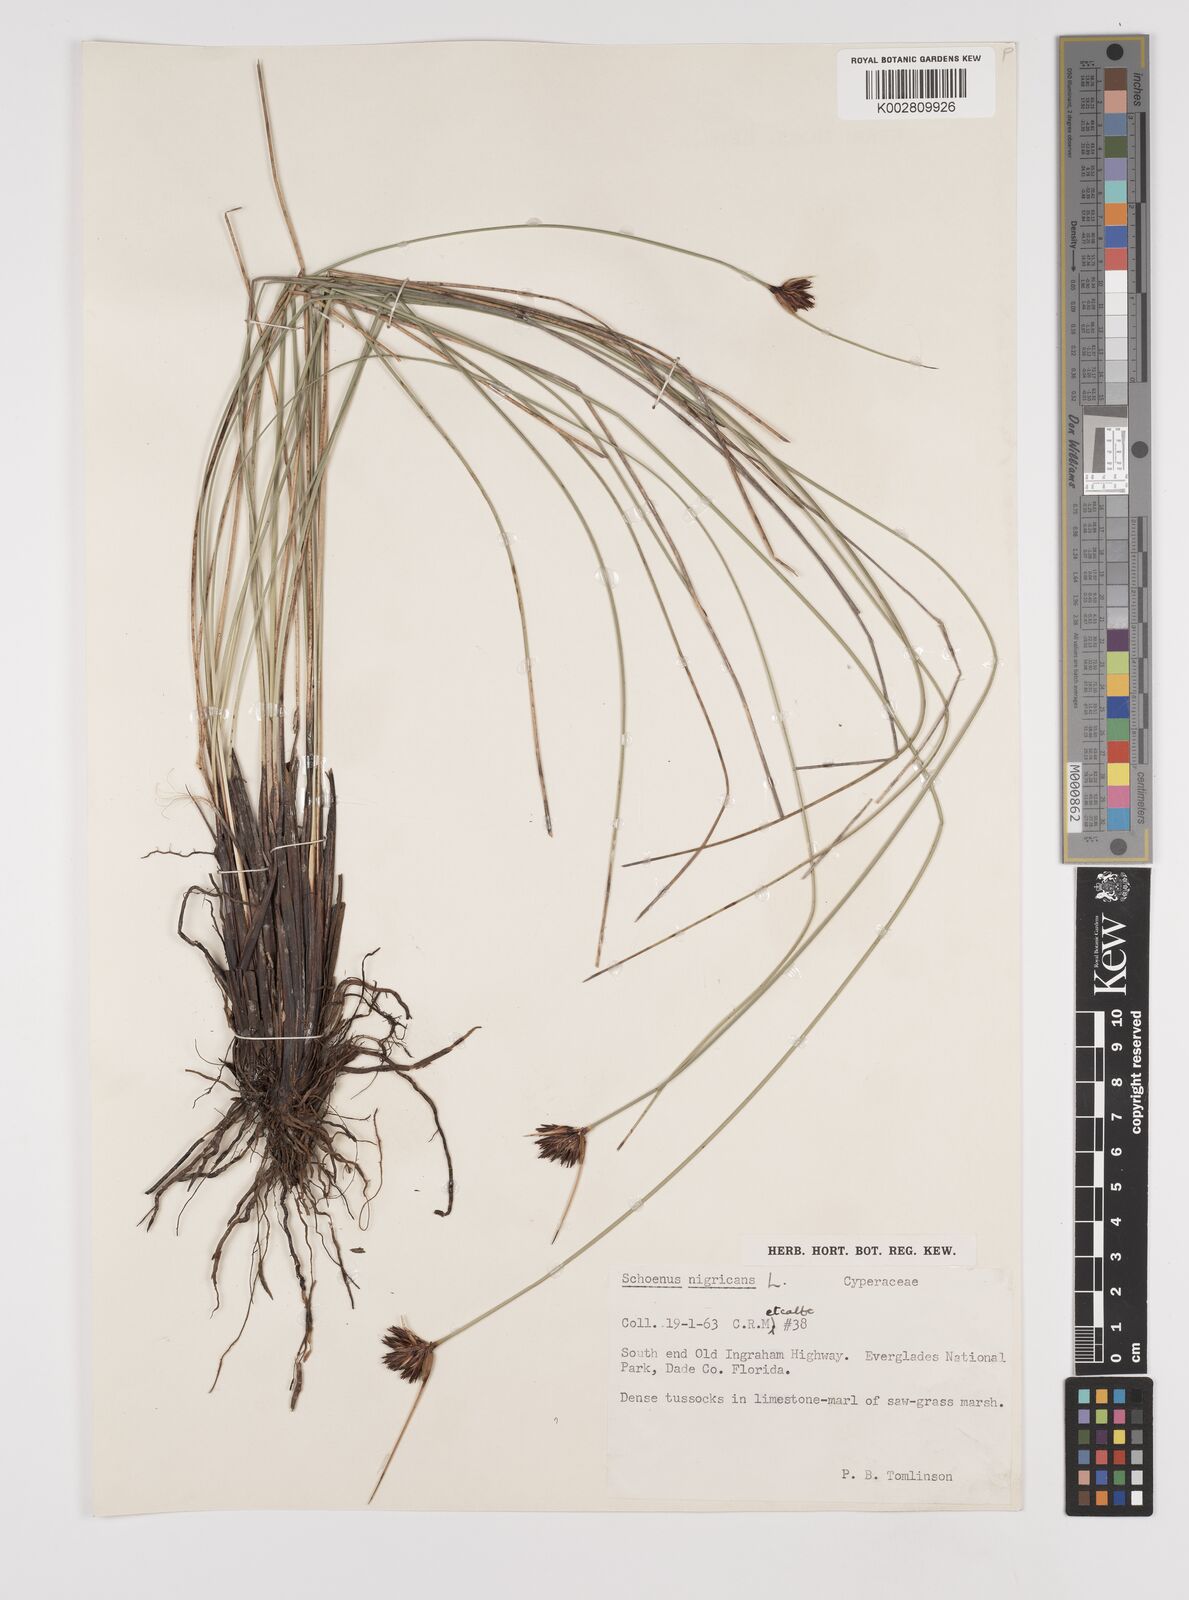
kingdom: Plantae
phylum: Tracheophyta
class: Liliopsida
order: Poales
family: Cyperaceae
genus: Schoenus
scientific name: Schoenus nigricans
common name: Black bog-rush
